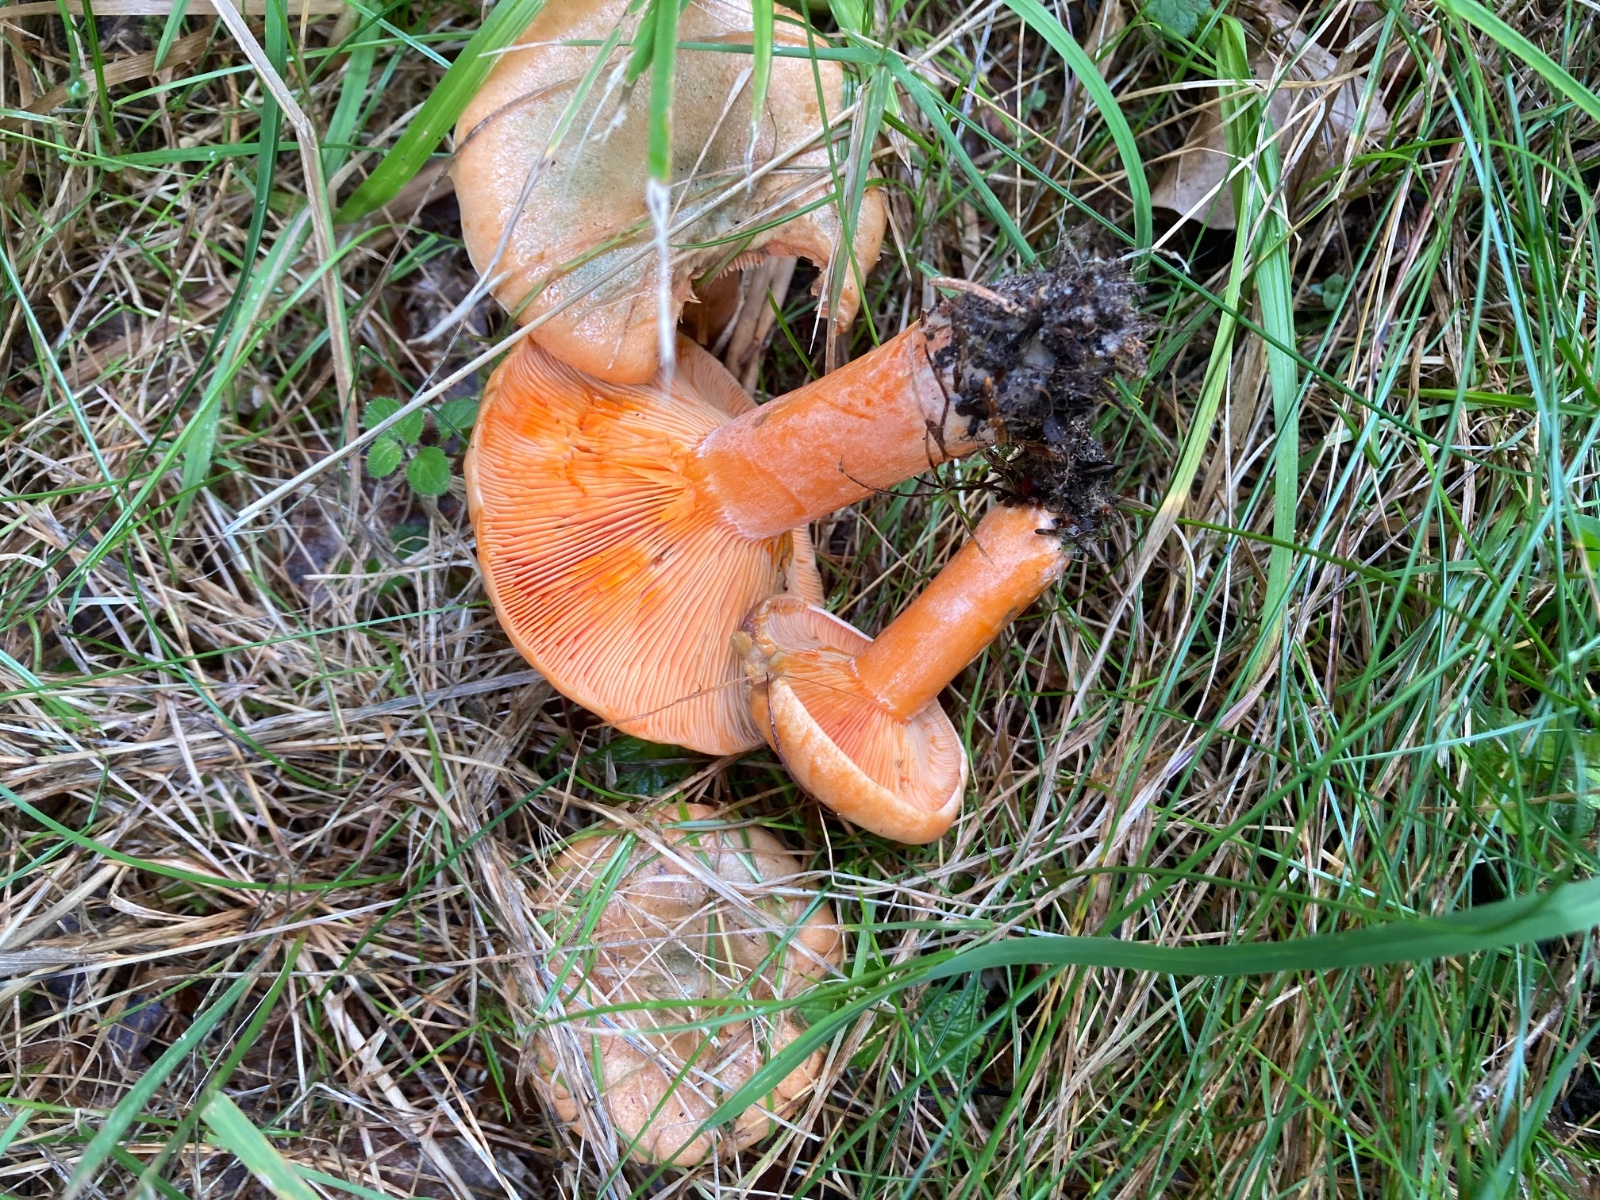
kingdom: Fungi
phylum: Basidiomycota
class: Agaricomycetes
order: Russulales
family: Russulaceae
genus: Lactarius
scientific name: Lactarius deterrimus
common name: gran-mælkehat
